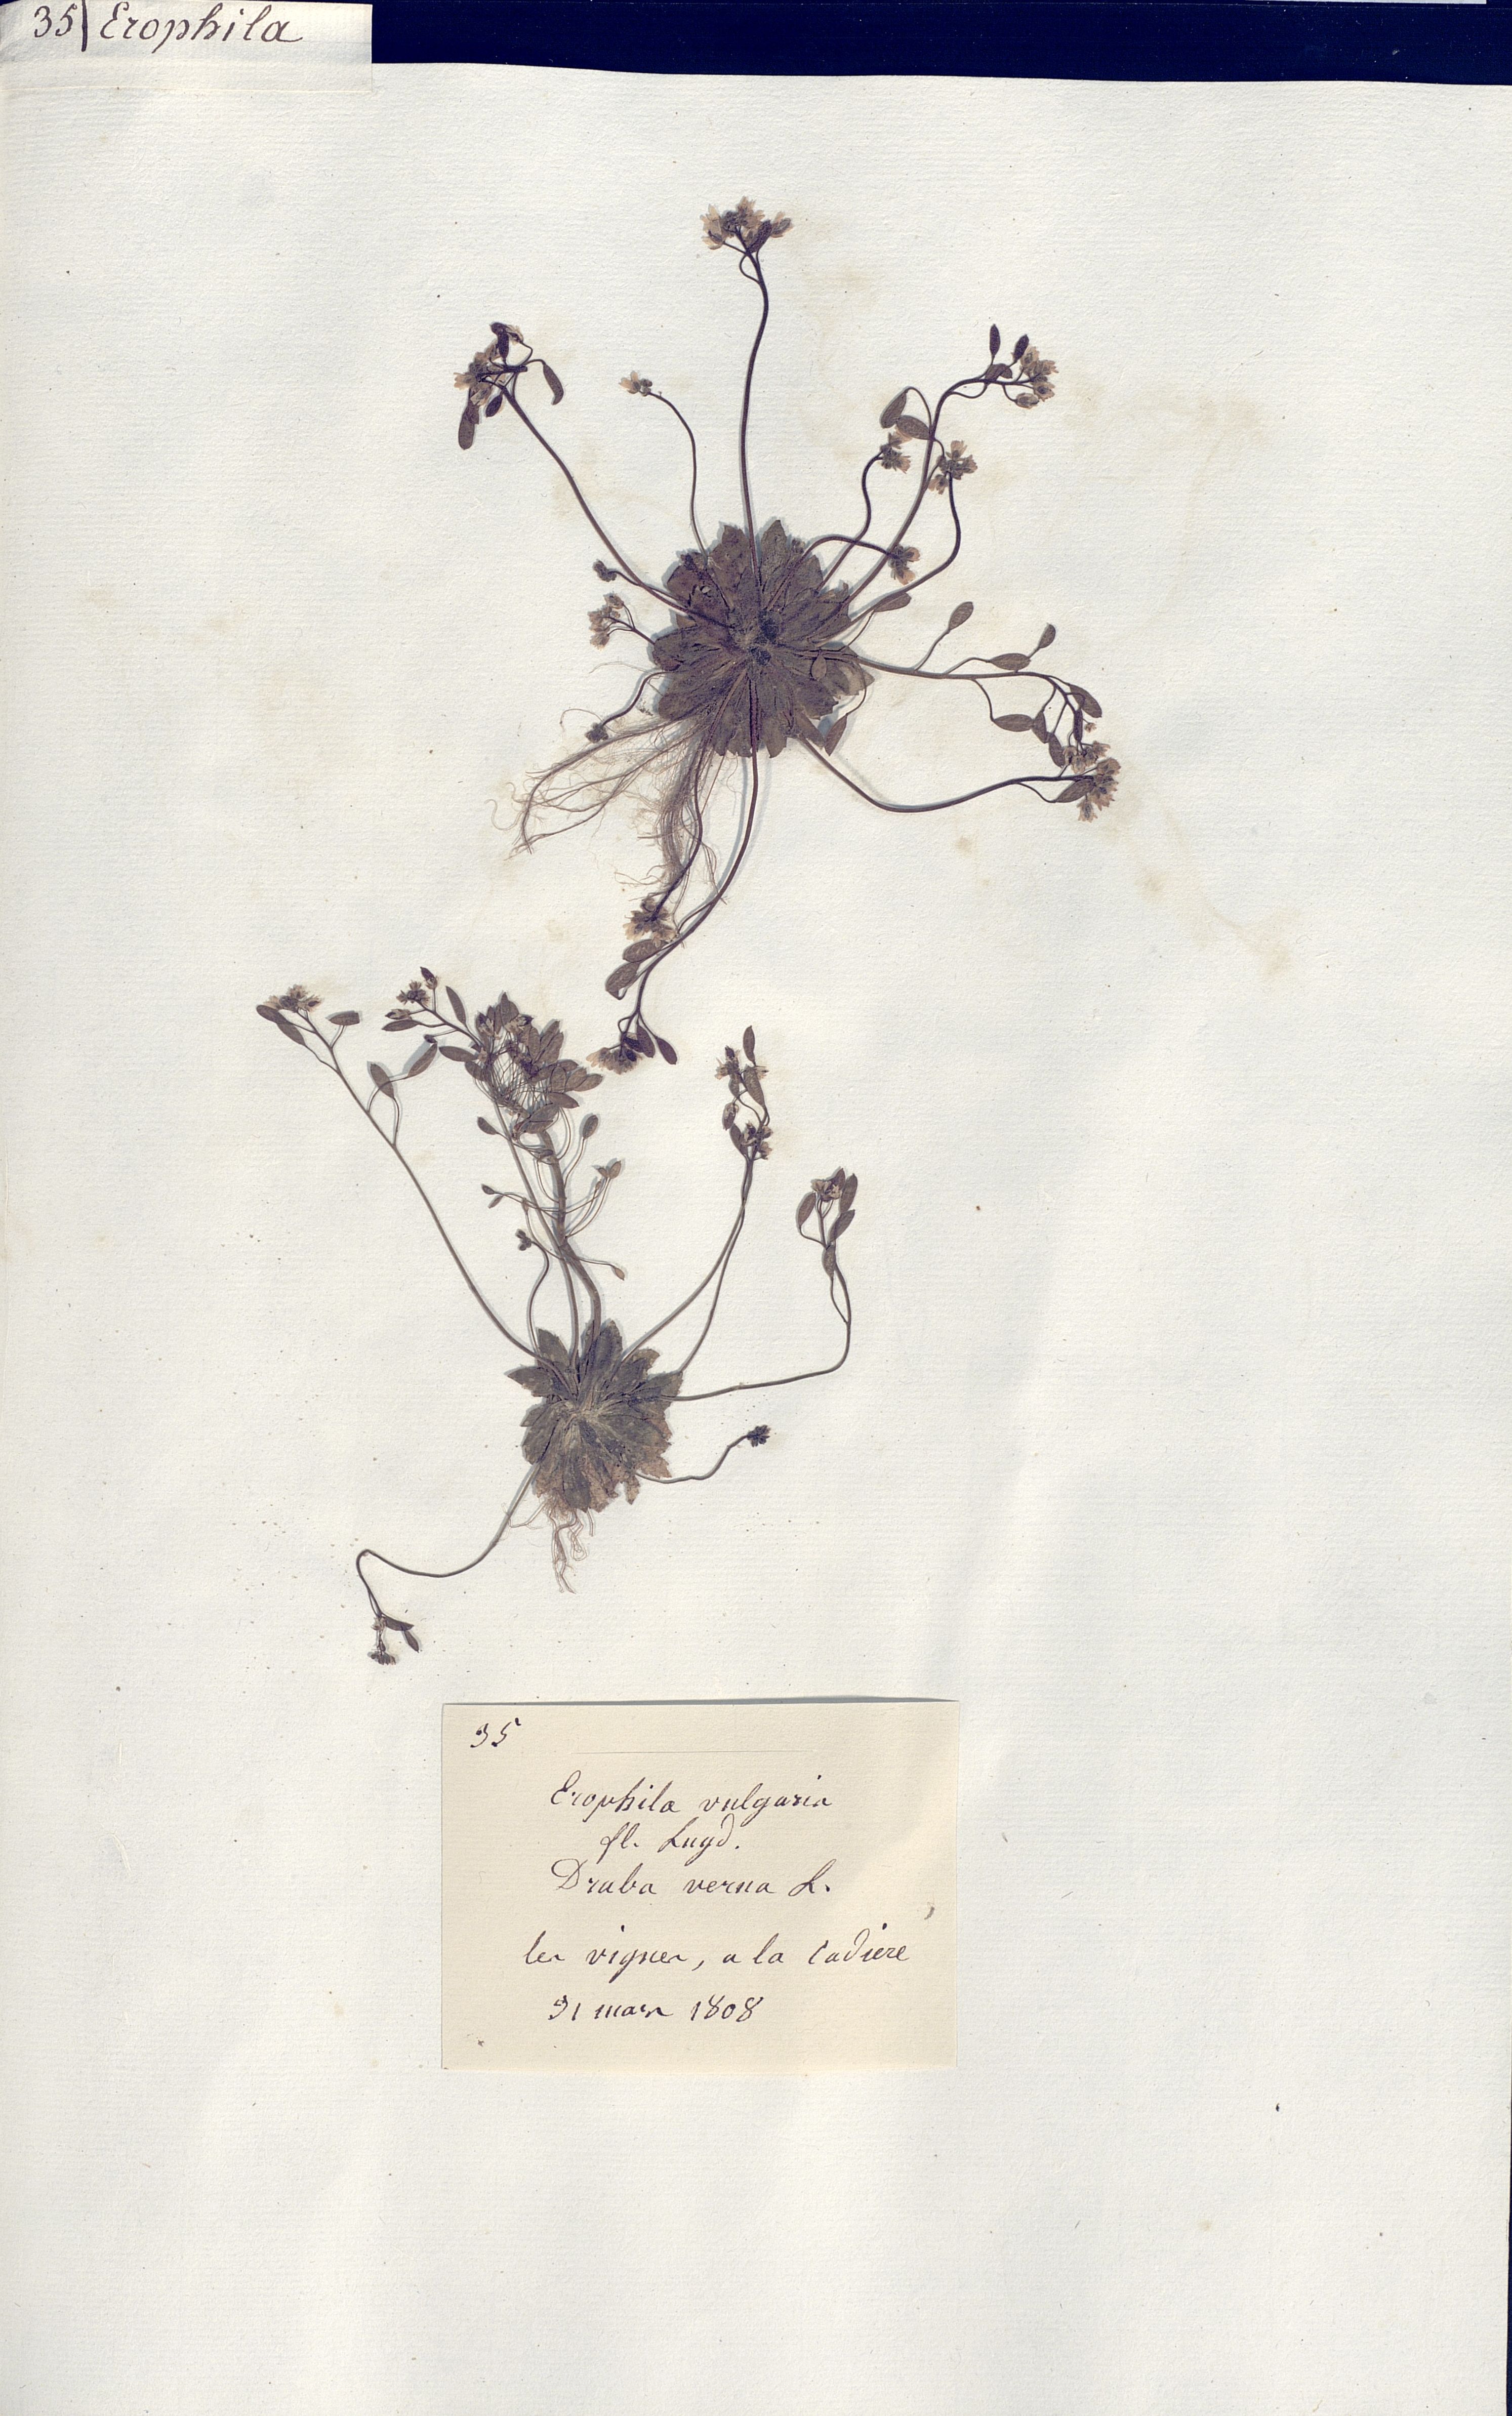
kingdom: Plantae
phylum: Tracheophyta
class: Magnoliopsida
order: Brassicales
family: Brassicaceae
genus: Draba
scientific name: Draba verna
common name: Spring draba
